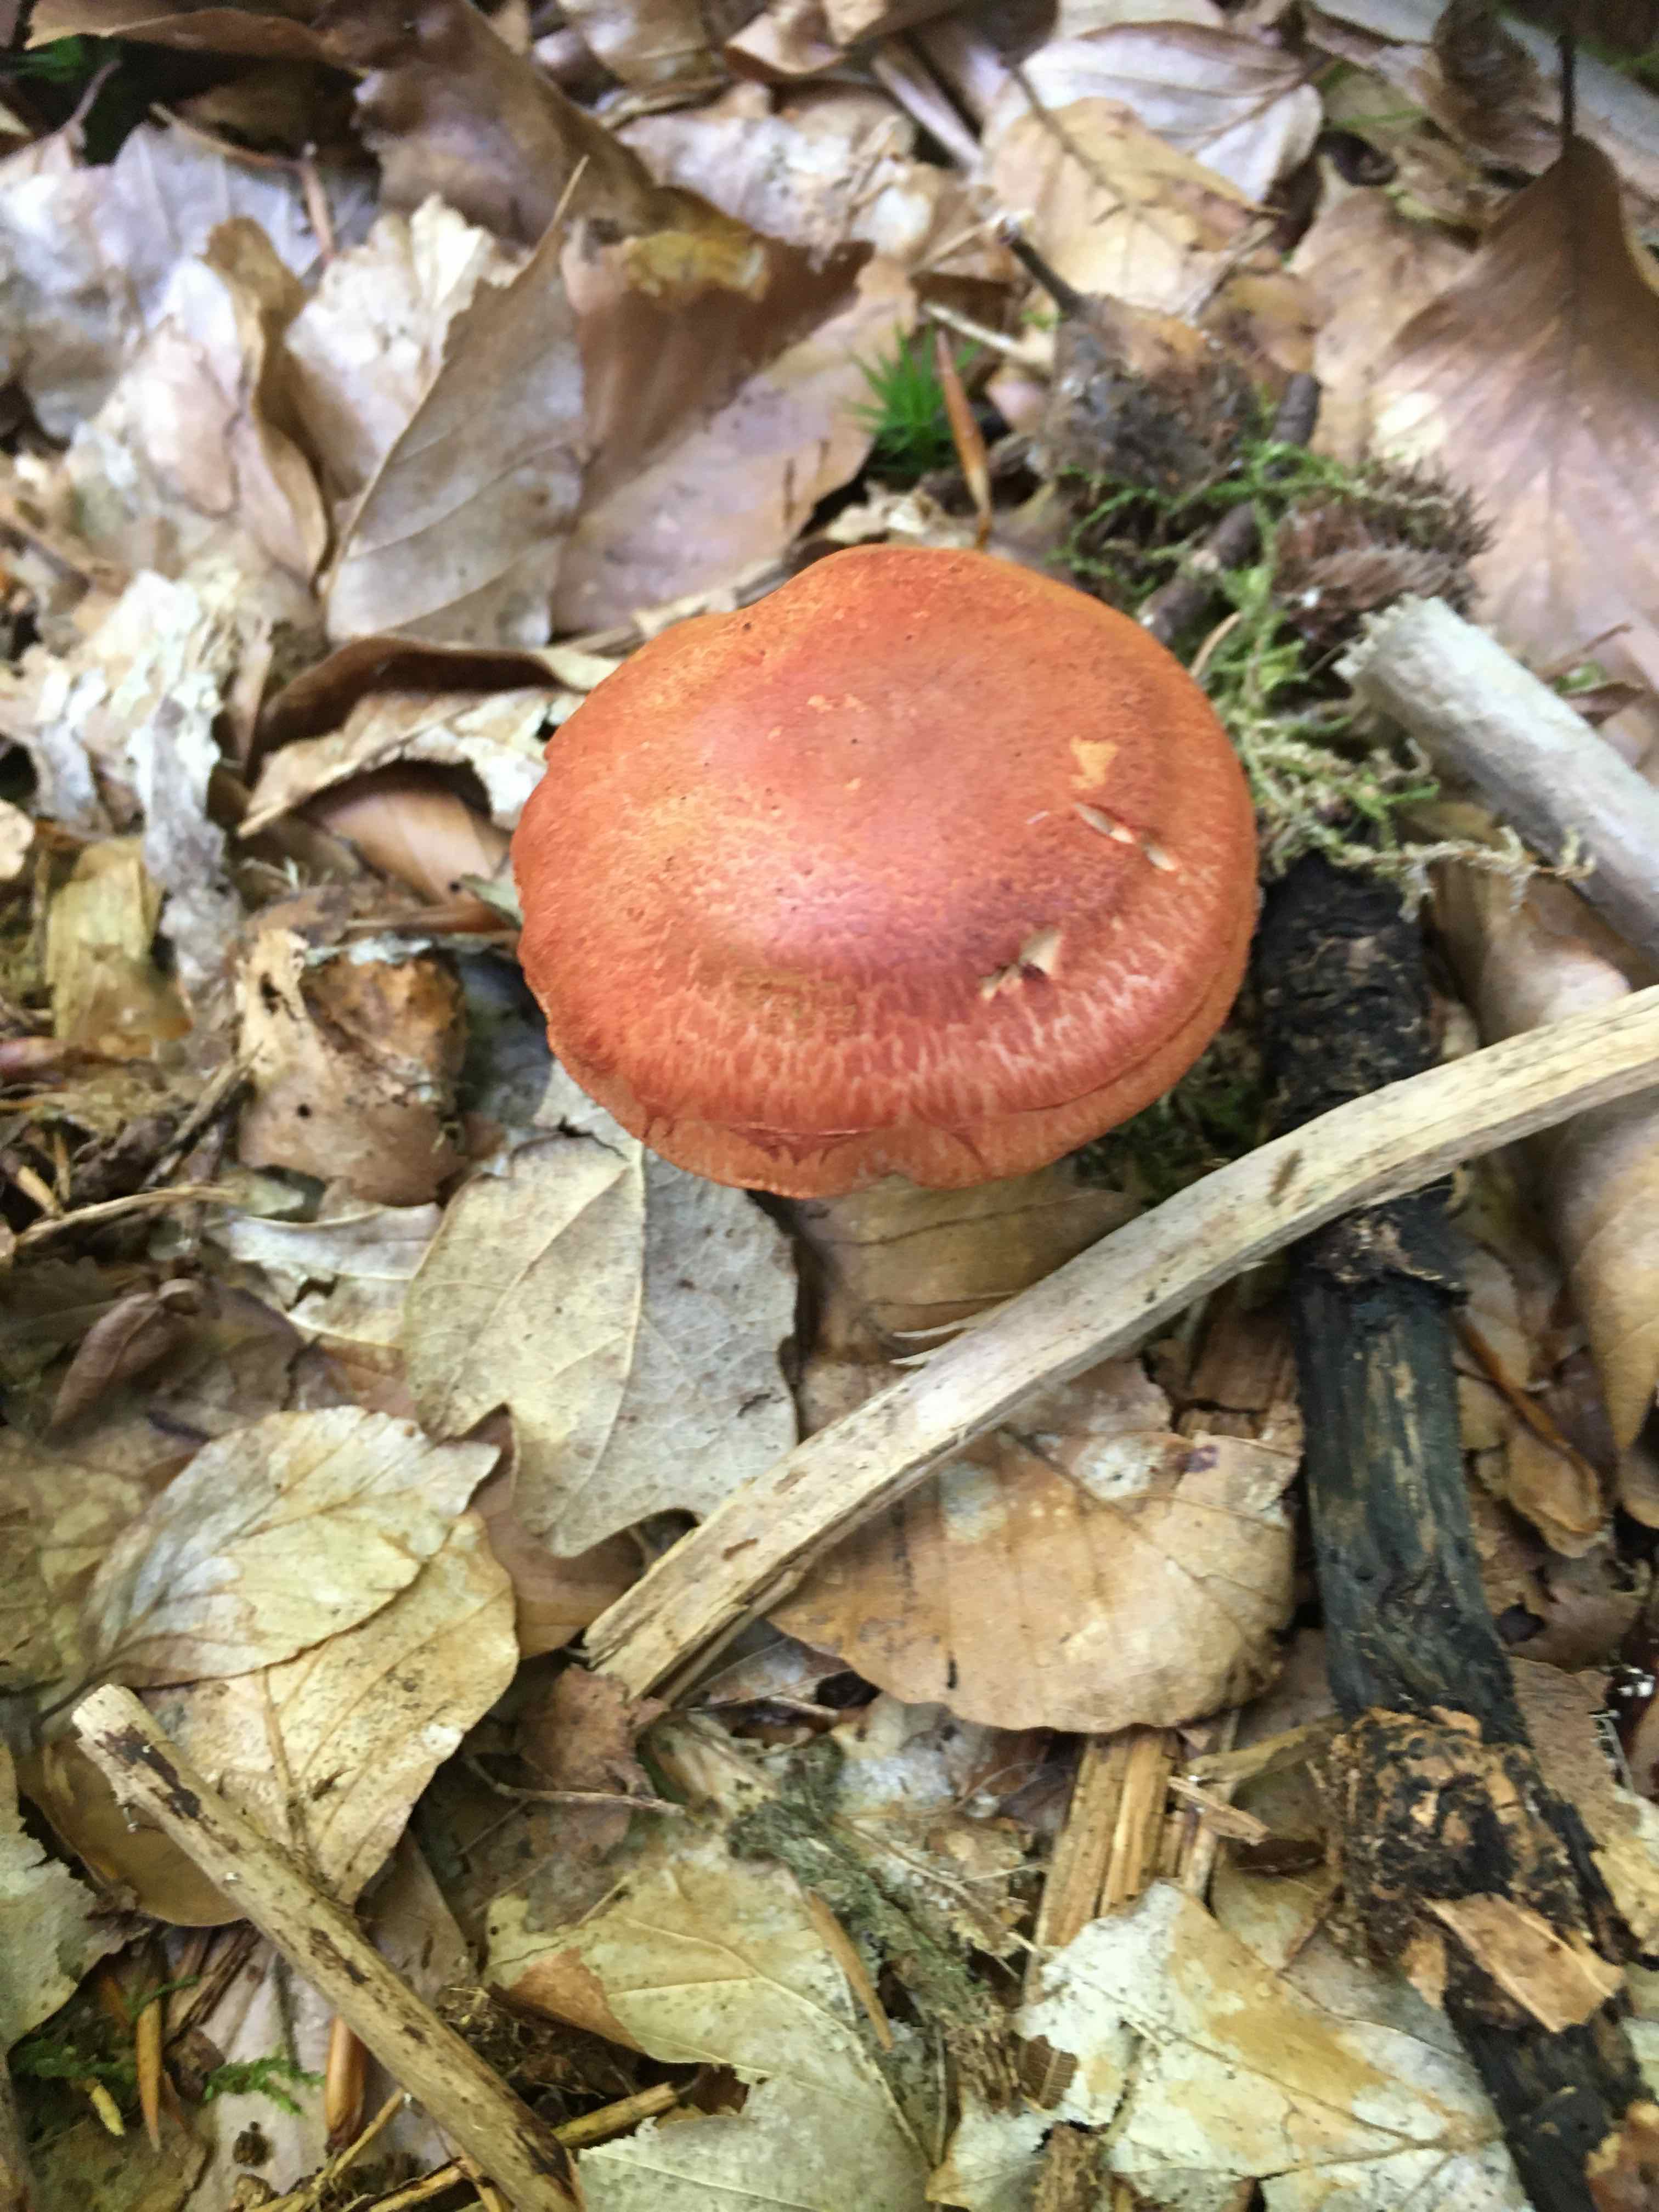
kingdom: Fungi
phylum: Basidiomycota
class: Agaricomycetes
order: Agaricales
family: Cortinariaceae
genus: Cortinarius
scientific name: Cortinarius bolaris
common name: cinnoberskællet slørhat
